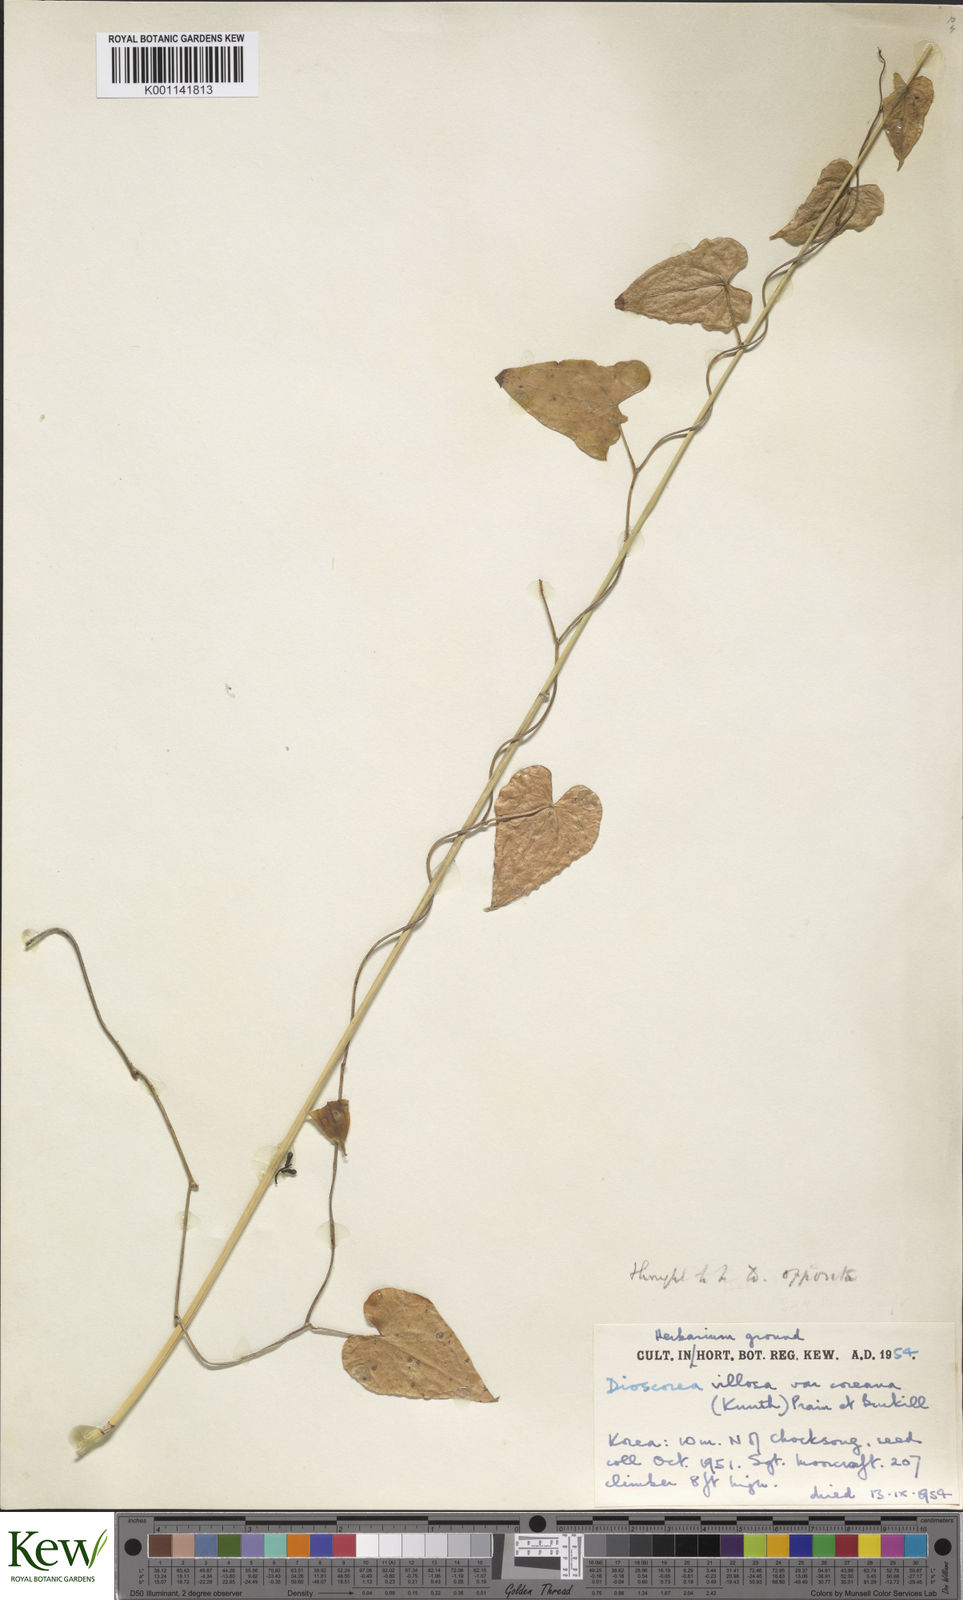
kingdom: Plantae
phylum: Tracheophyta
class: Liliopsida
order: Dioscoreales
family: Dioscoreaceae
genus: Dioscorea
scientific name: Dioscorea oppositifolia
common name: Chinese yam
